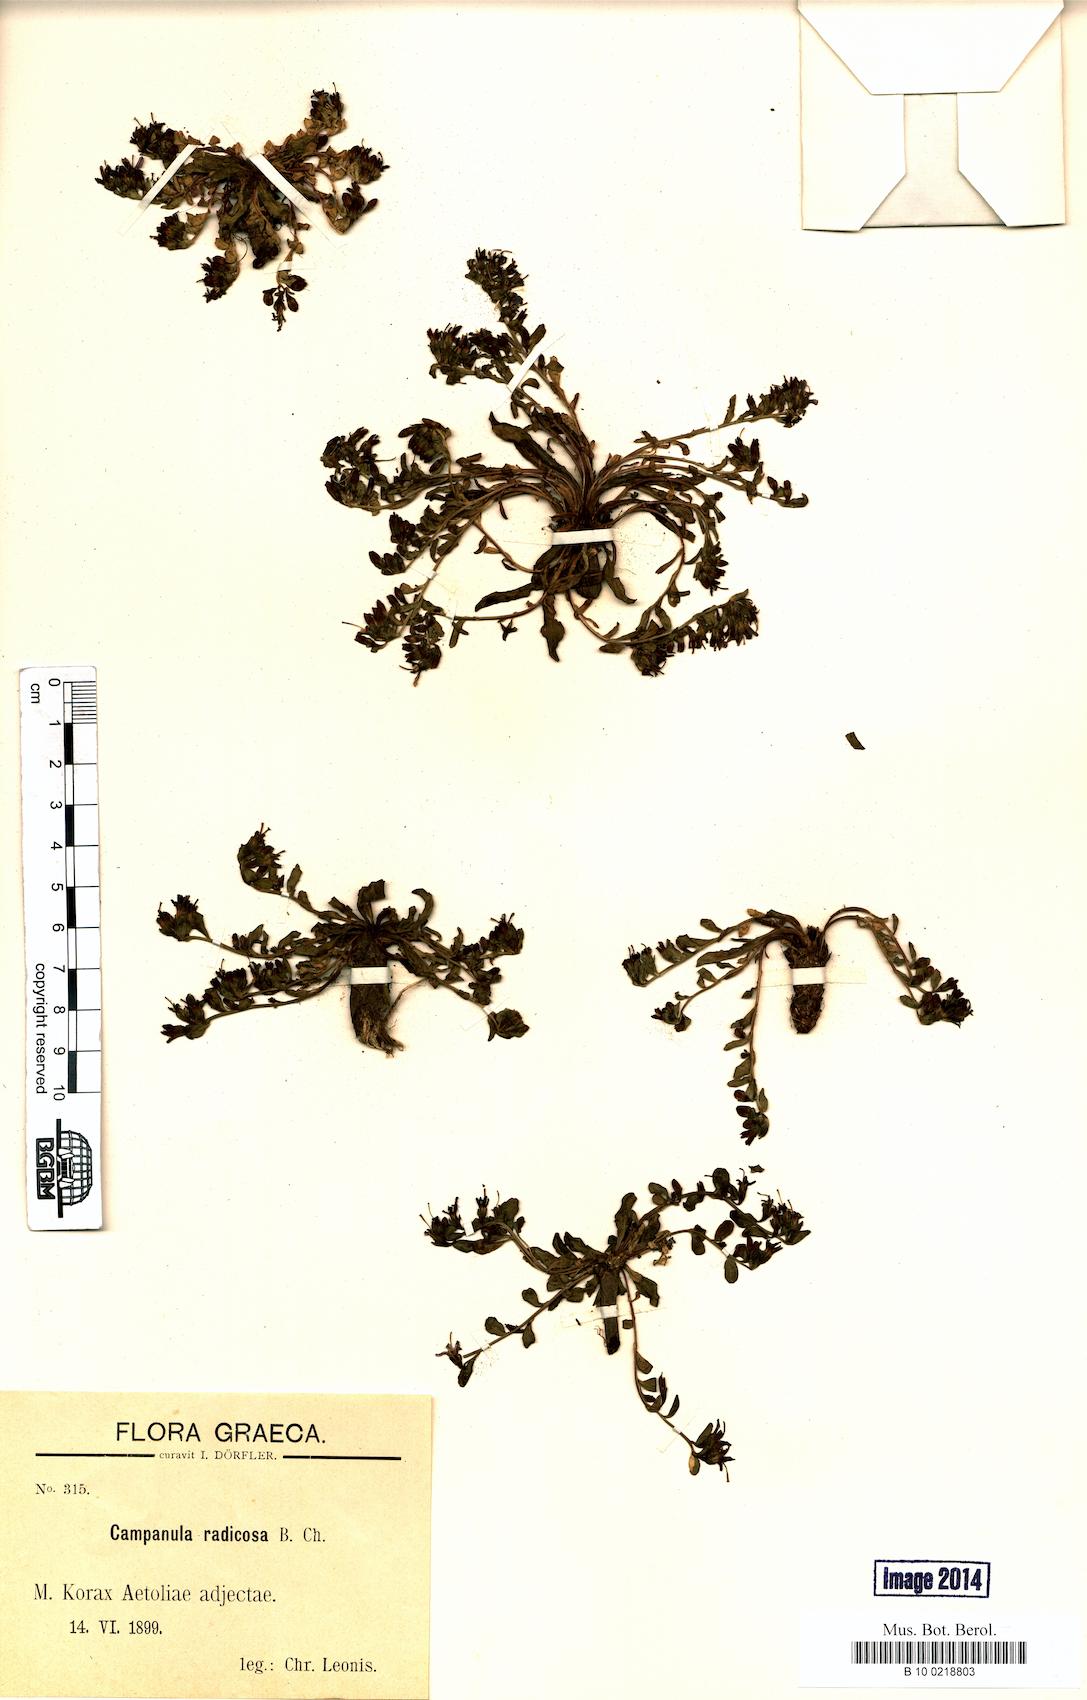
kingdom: Plantae
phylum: Tracheophyta
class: Magnoliopsida
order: Asterales
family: Campanulaceae
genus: Campanula
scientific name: Campanula radicosa
